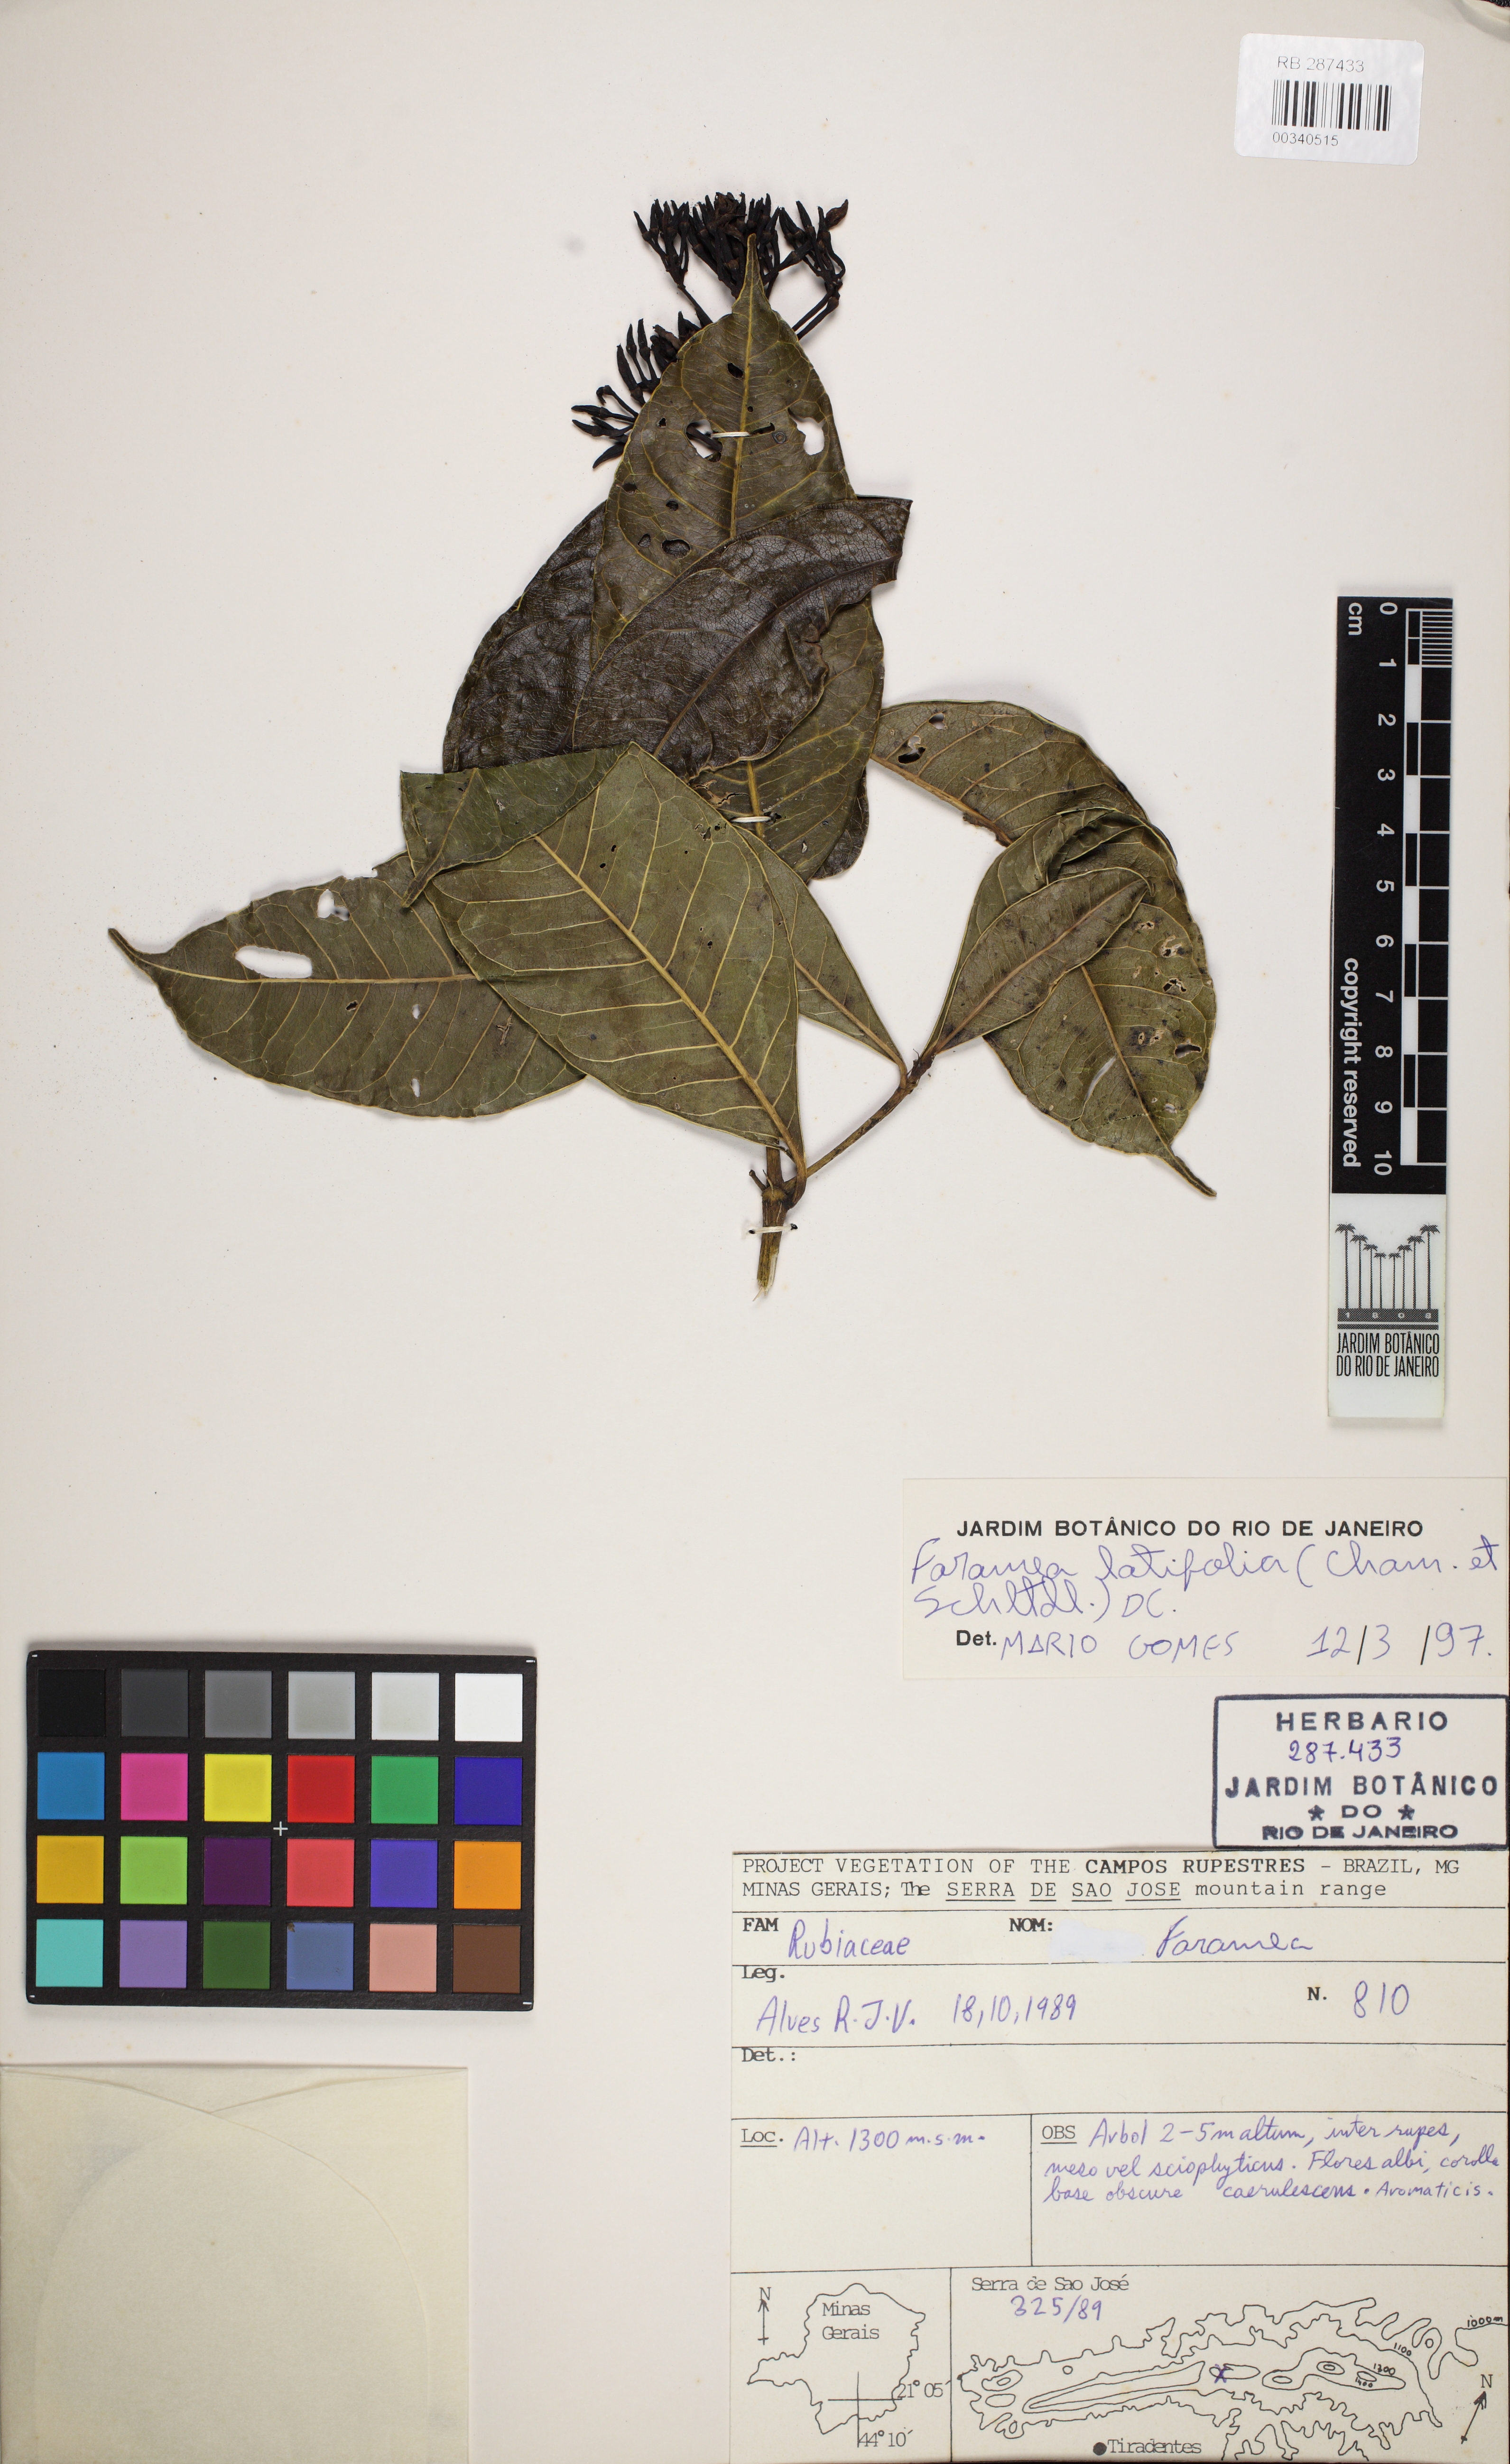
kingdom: Plantae
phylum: Tracheophyta
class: Magnoliopsida
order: Gentianales
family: Rubiaceae
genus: Faramea
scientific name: Faramea latifolia
